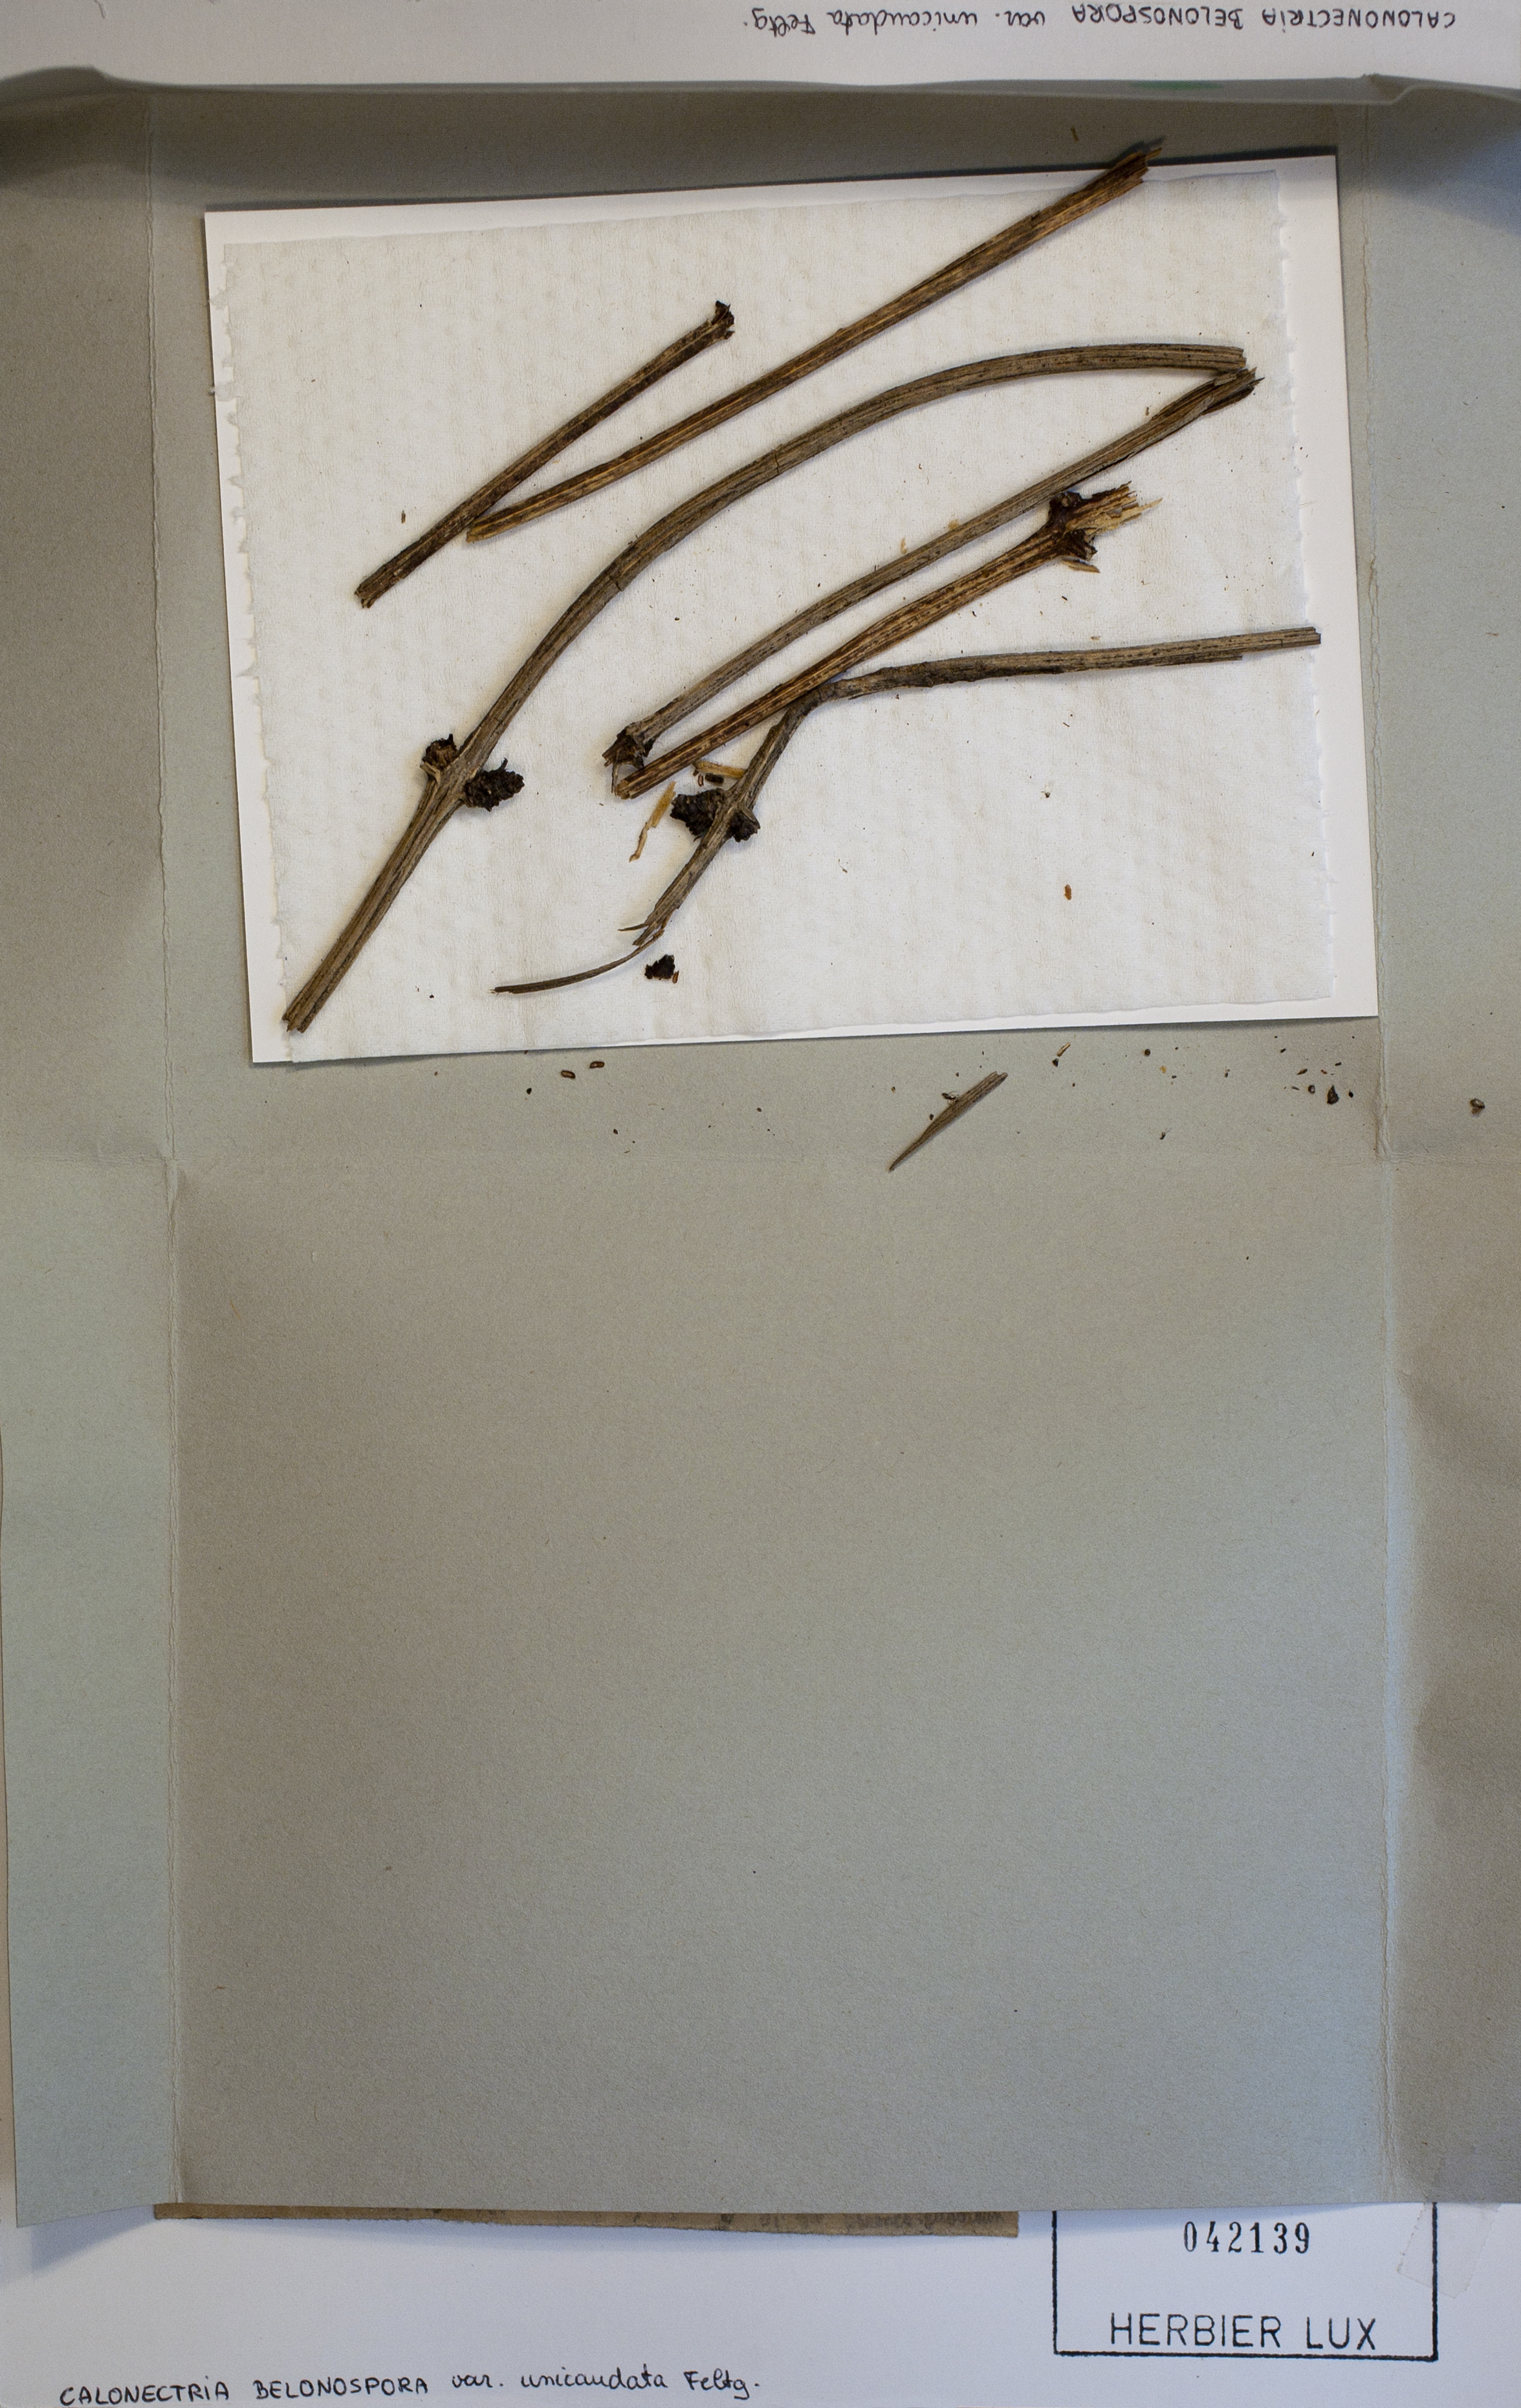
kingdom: Fungi
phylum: Ascomycota
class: Sordariomycetes
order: Hypocreales
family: Nectriaceae
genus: Ophionectria
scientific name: Ophionectria belonospora
